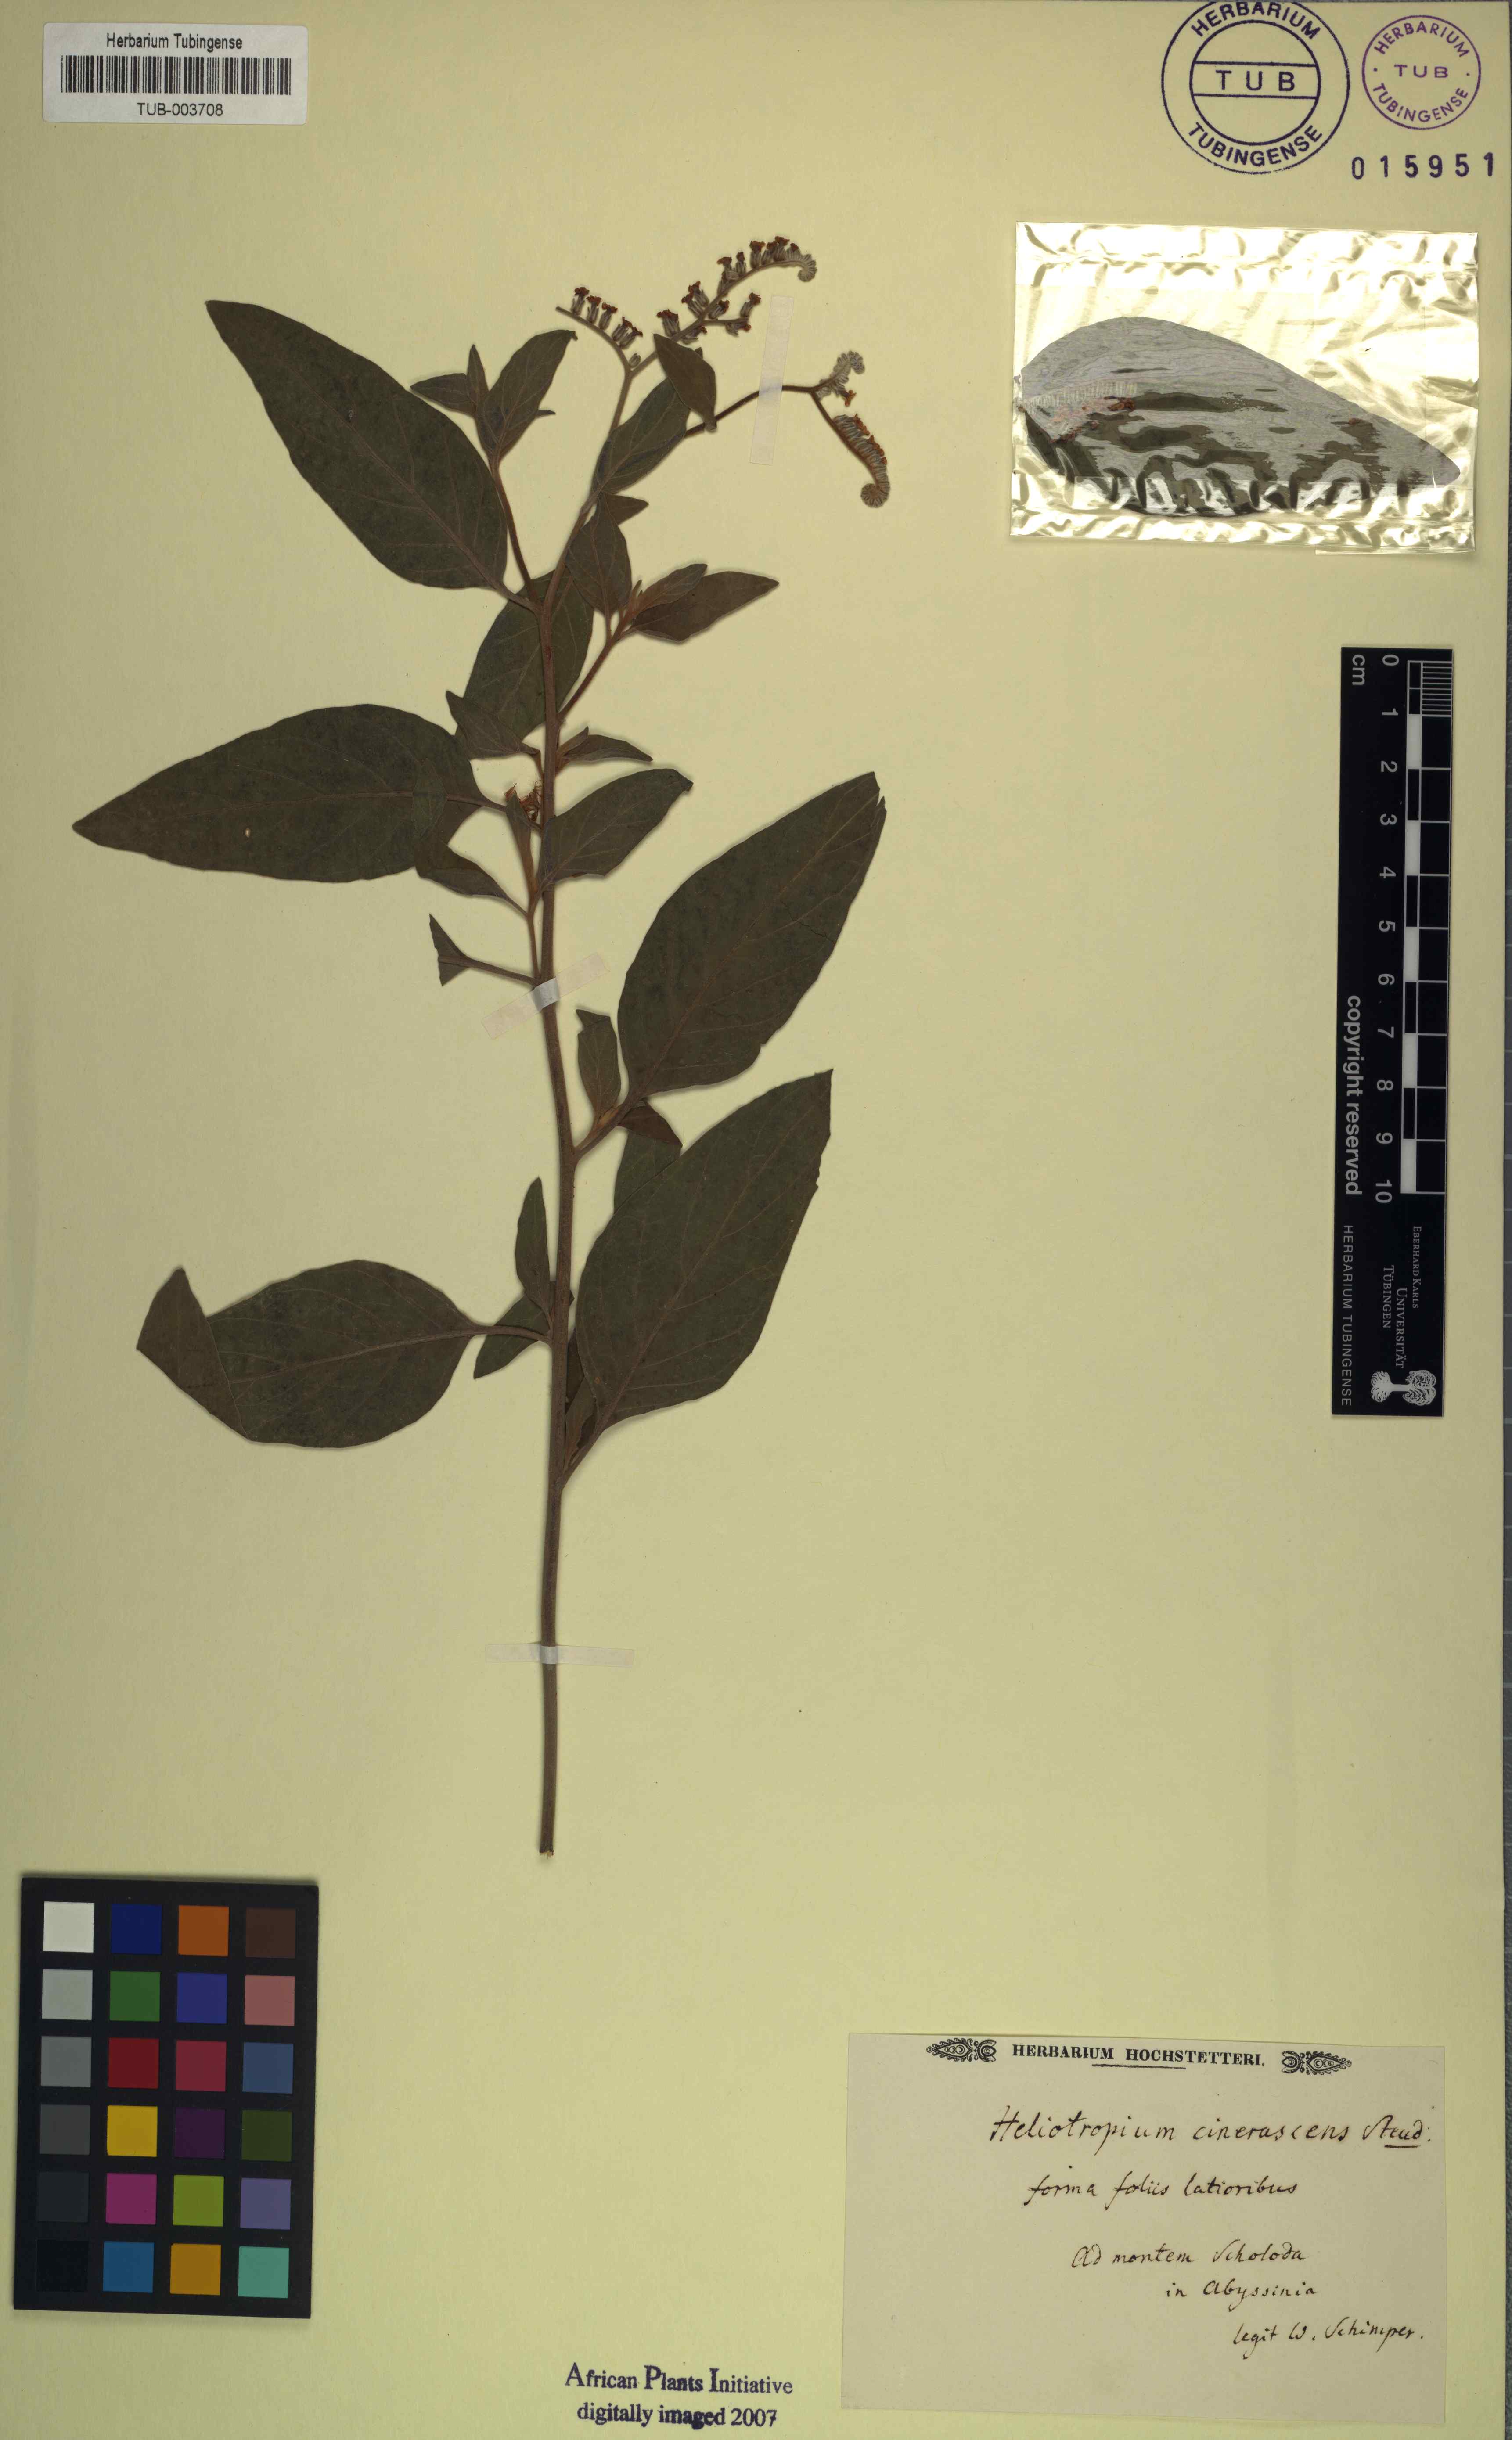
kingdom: Plantae
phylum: Tracheophyta
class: Magnoliopsida
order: Boraginales
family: Heliotropiaceae
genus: Heliotropium
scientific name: Heliotropium aegyptiacum
